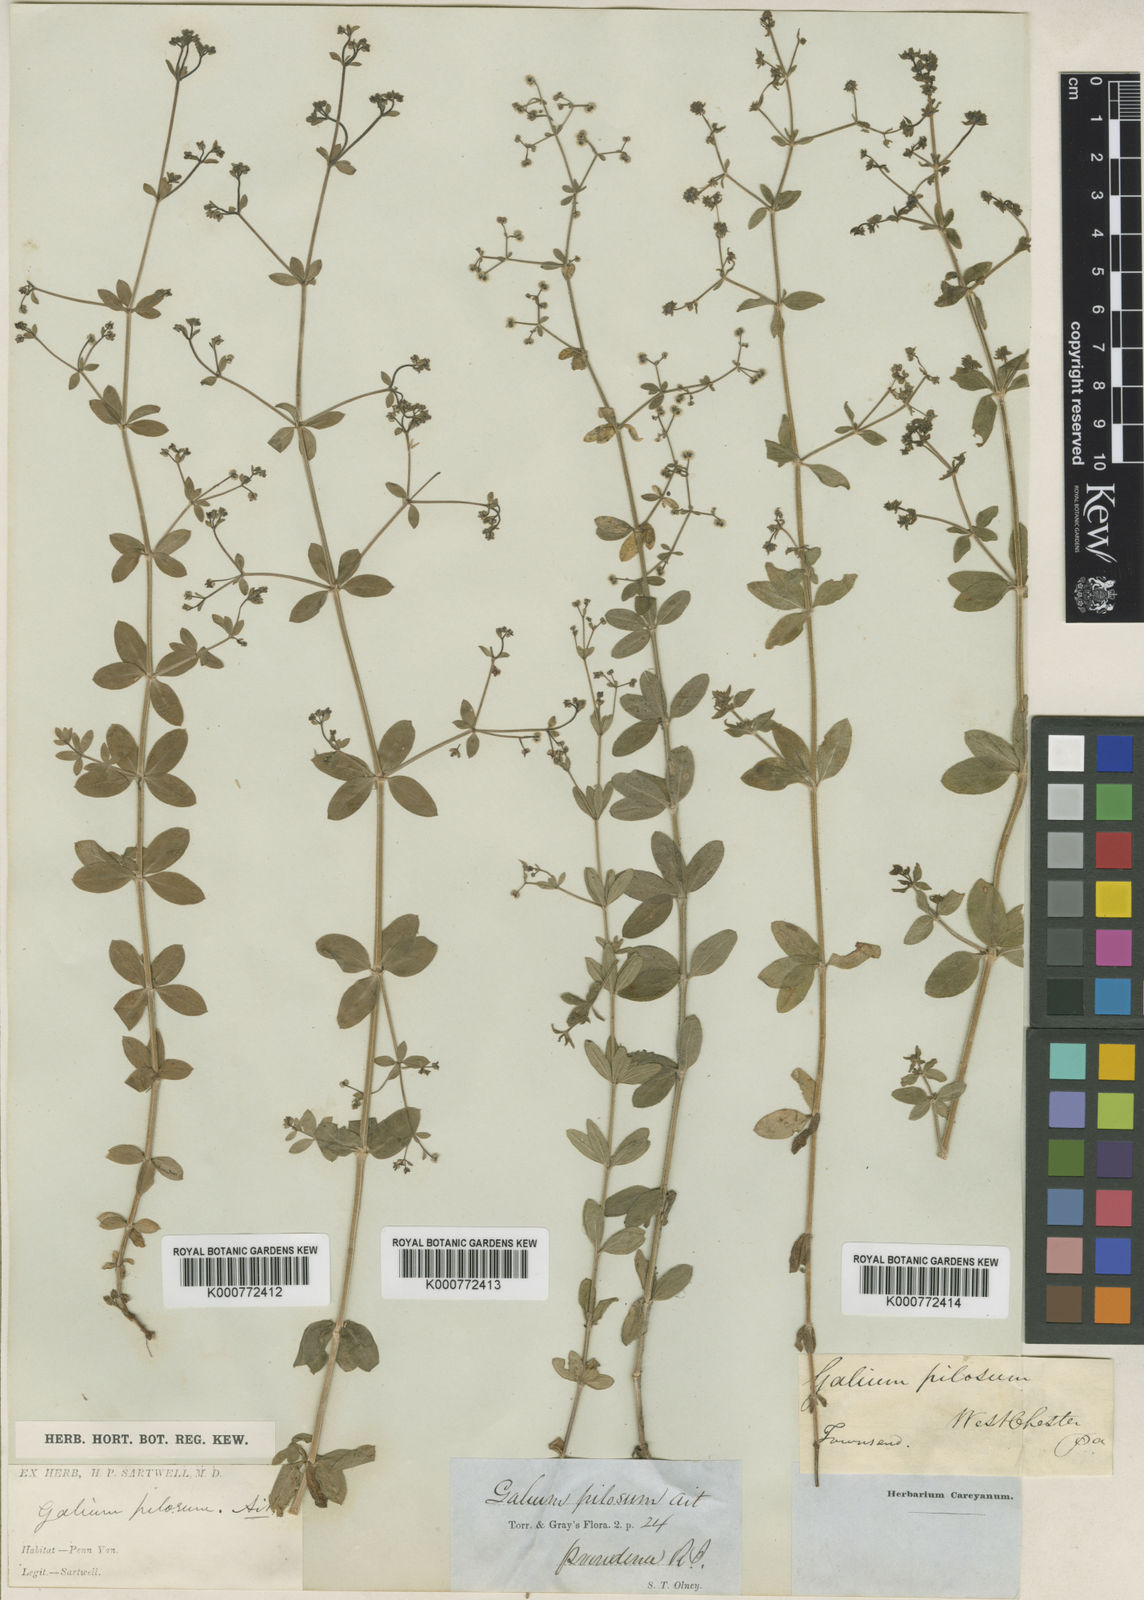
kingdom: Plantae
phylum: Tracheophyta
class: Magnoliopsida
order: Gentianales
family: Rubiaceae
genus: Galium
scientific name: Galium pilosum
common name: Hairy bedstraw
